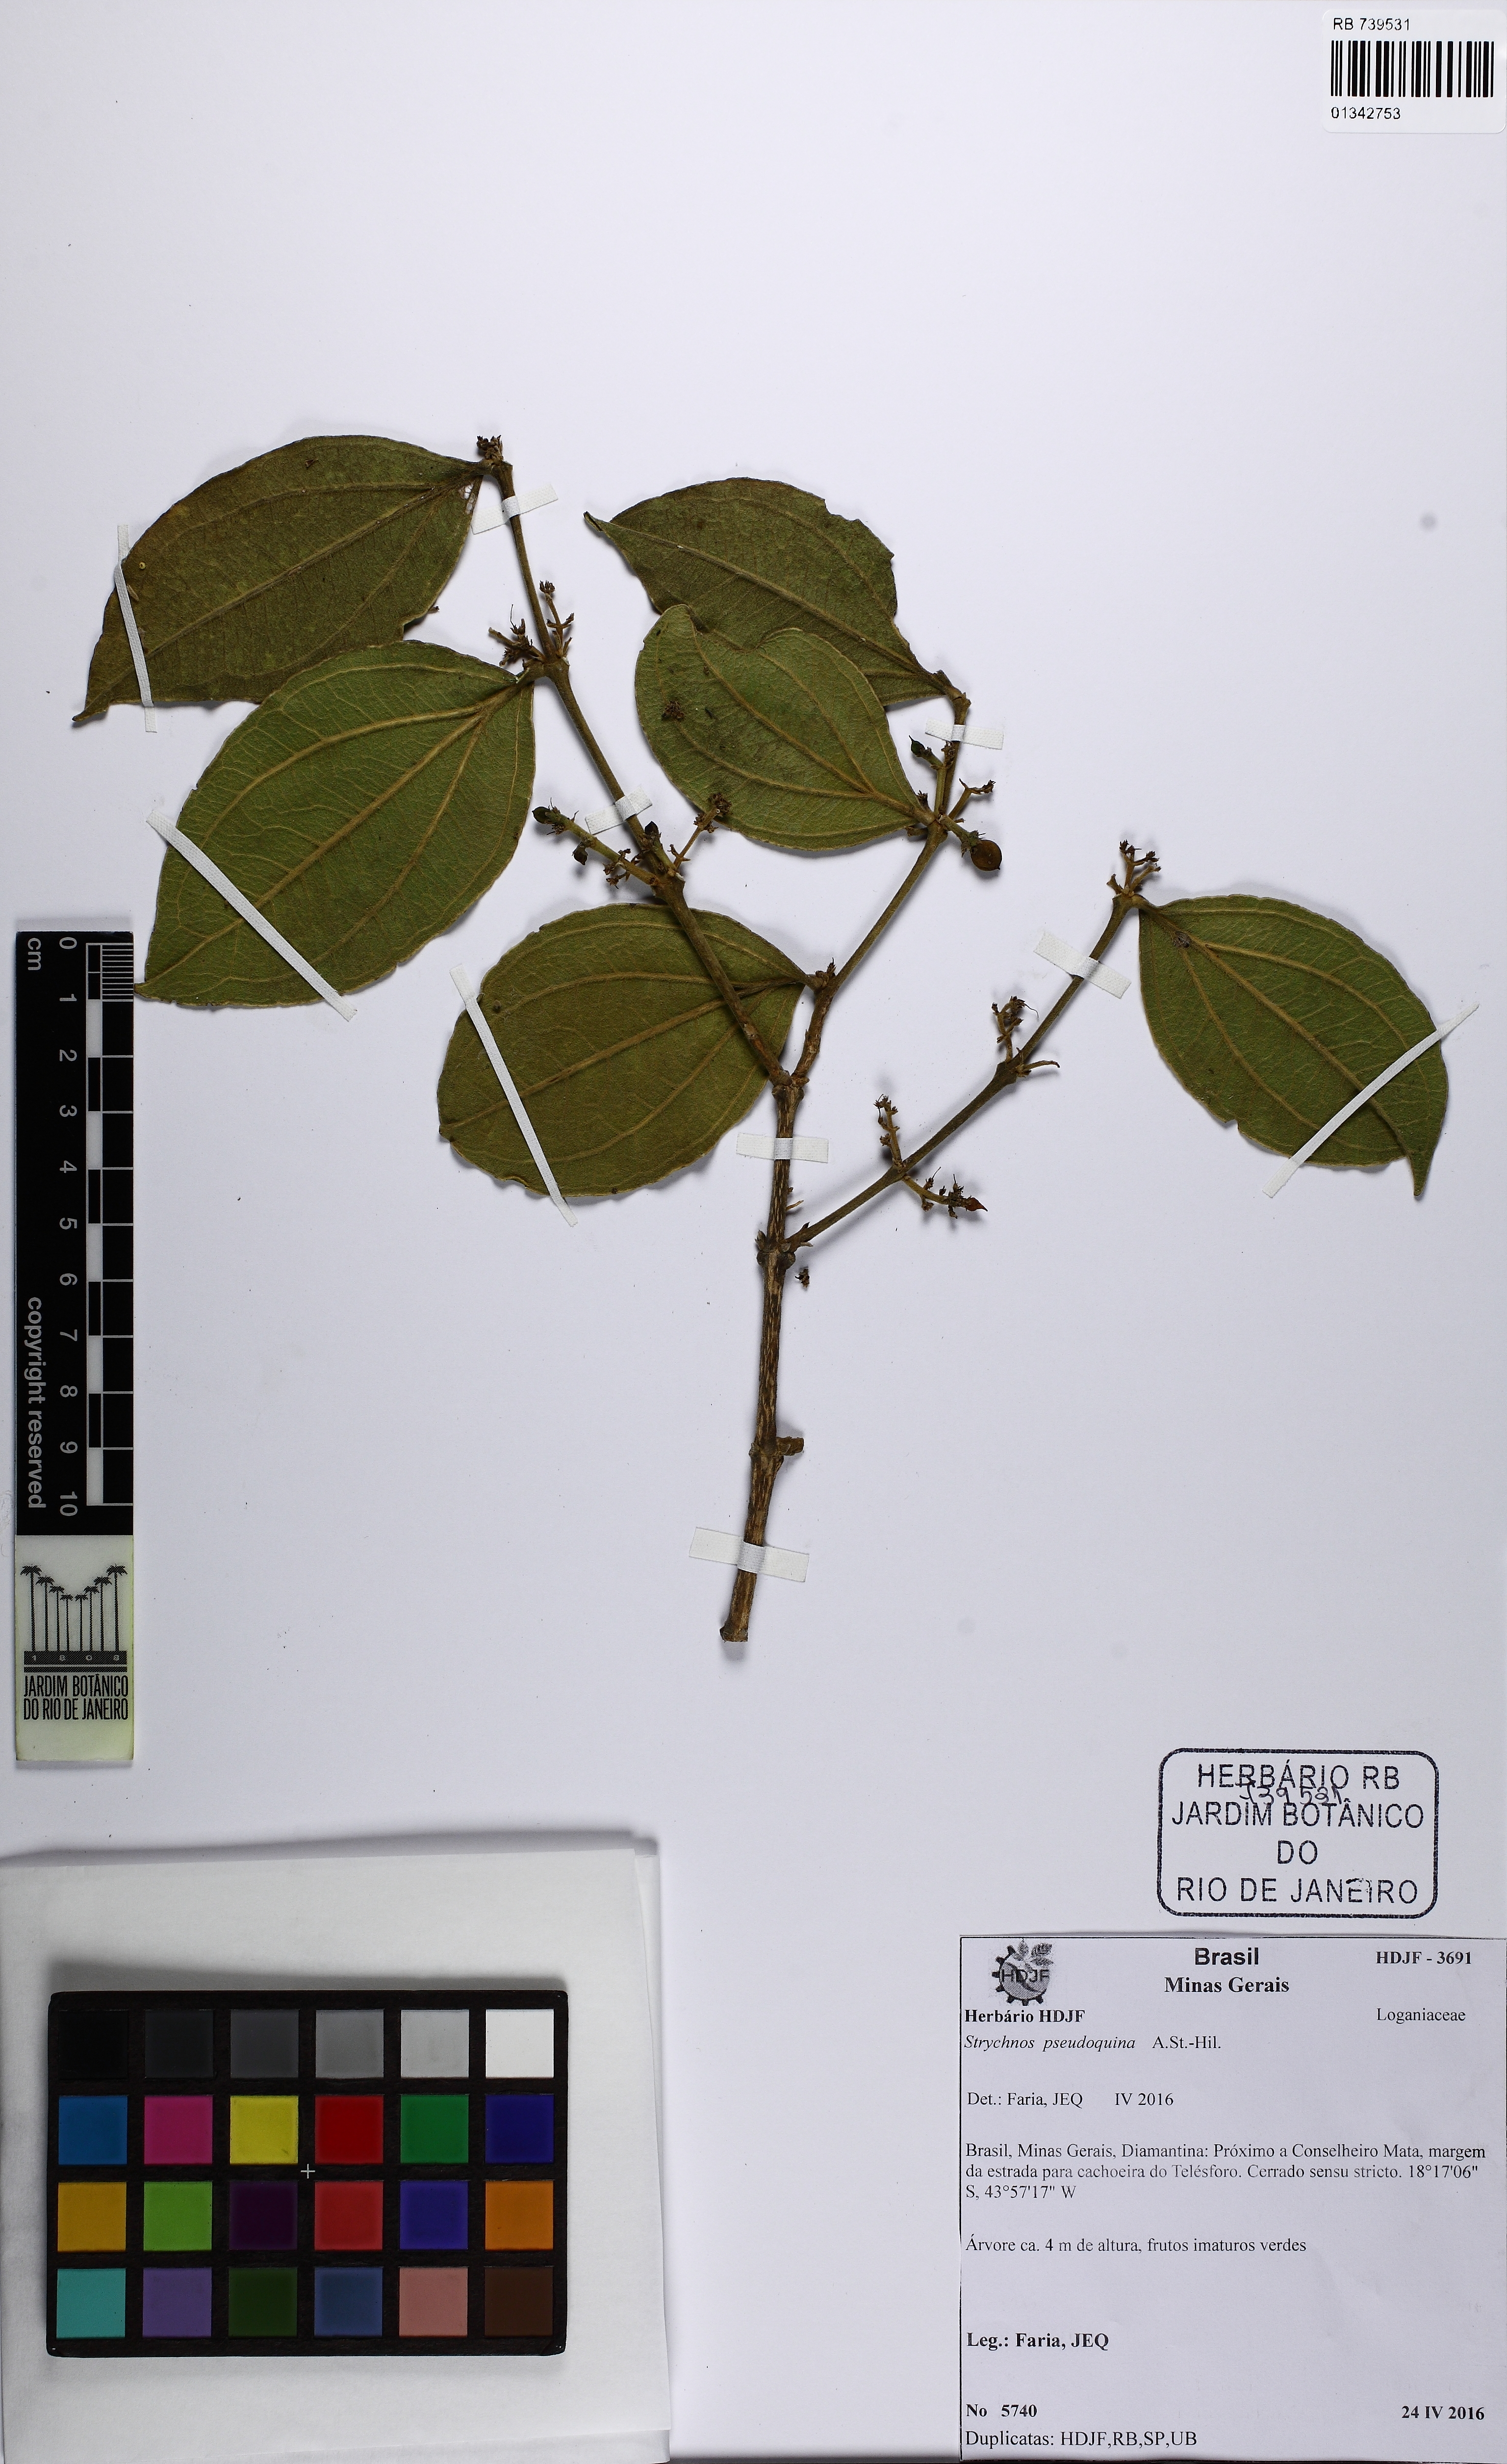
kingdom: Plantae
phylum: Tracheophyta
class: Magnoliopsida
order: Gentianales
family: Loganiaceae
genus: Strychnos
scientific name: Strychnos pseudoquina
